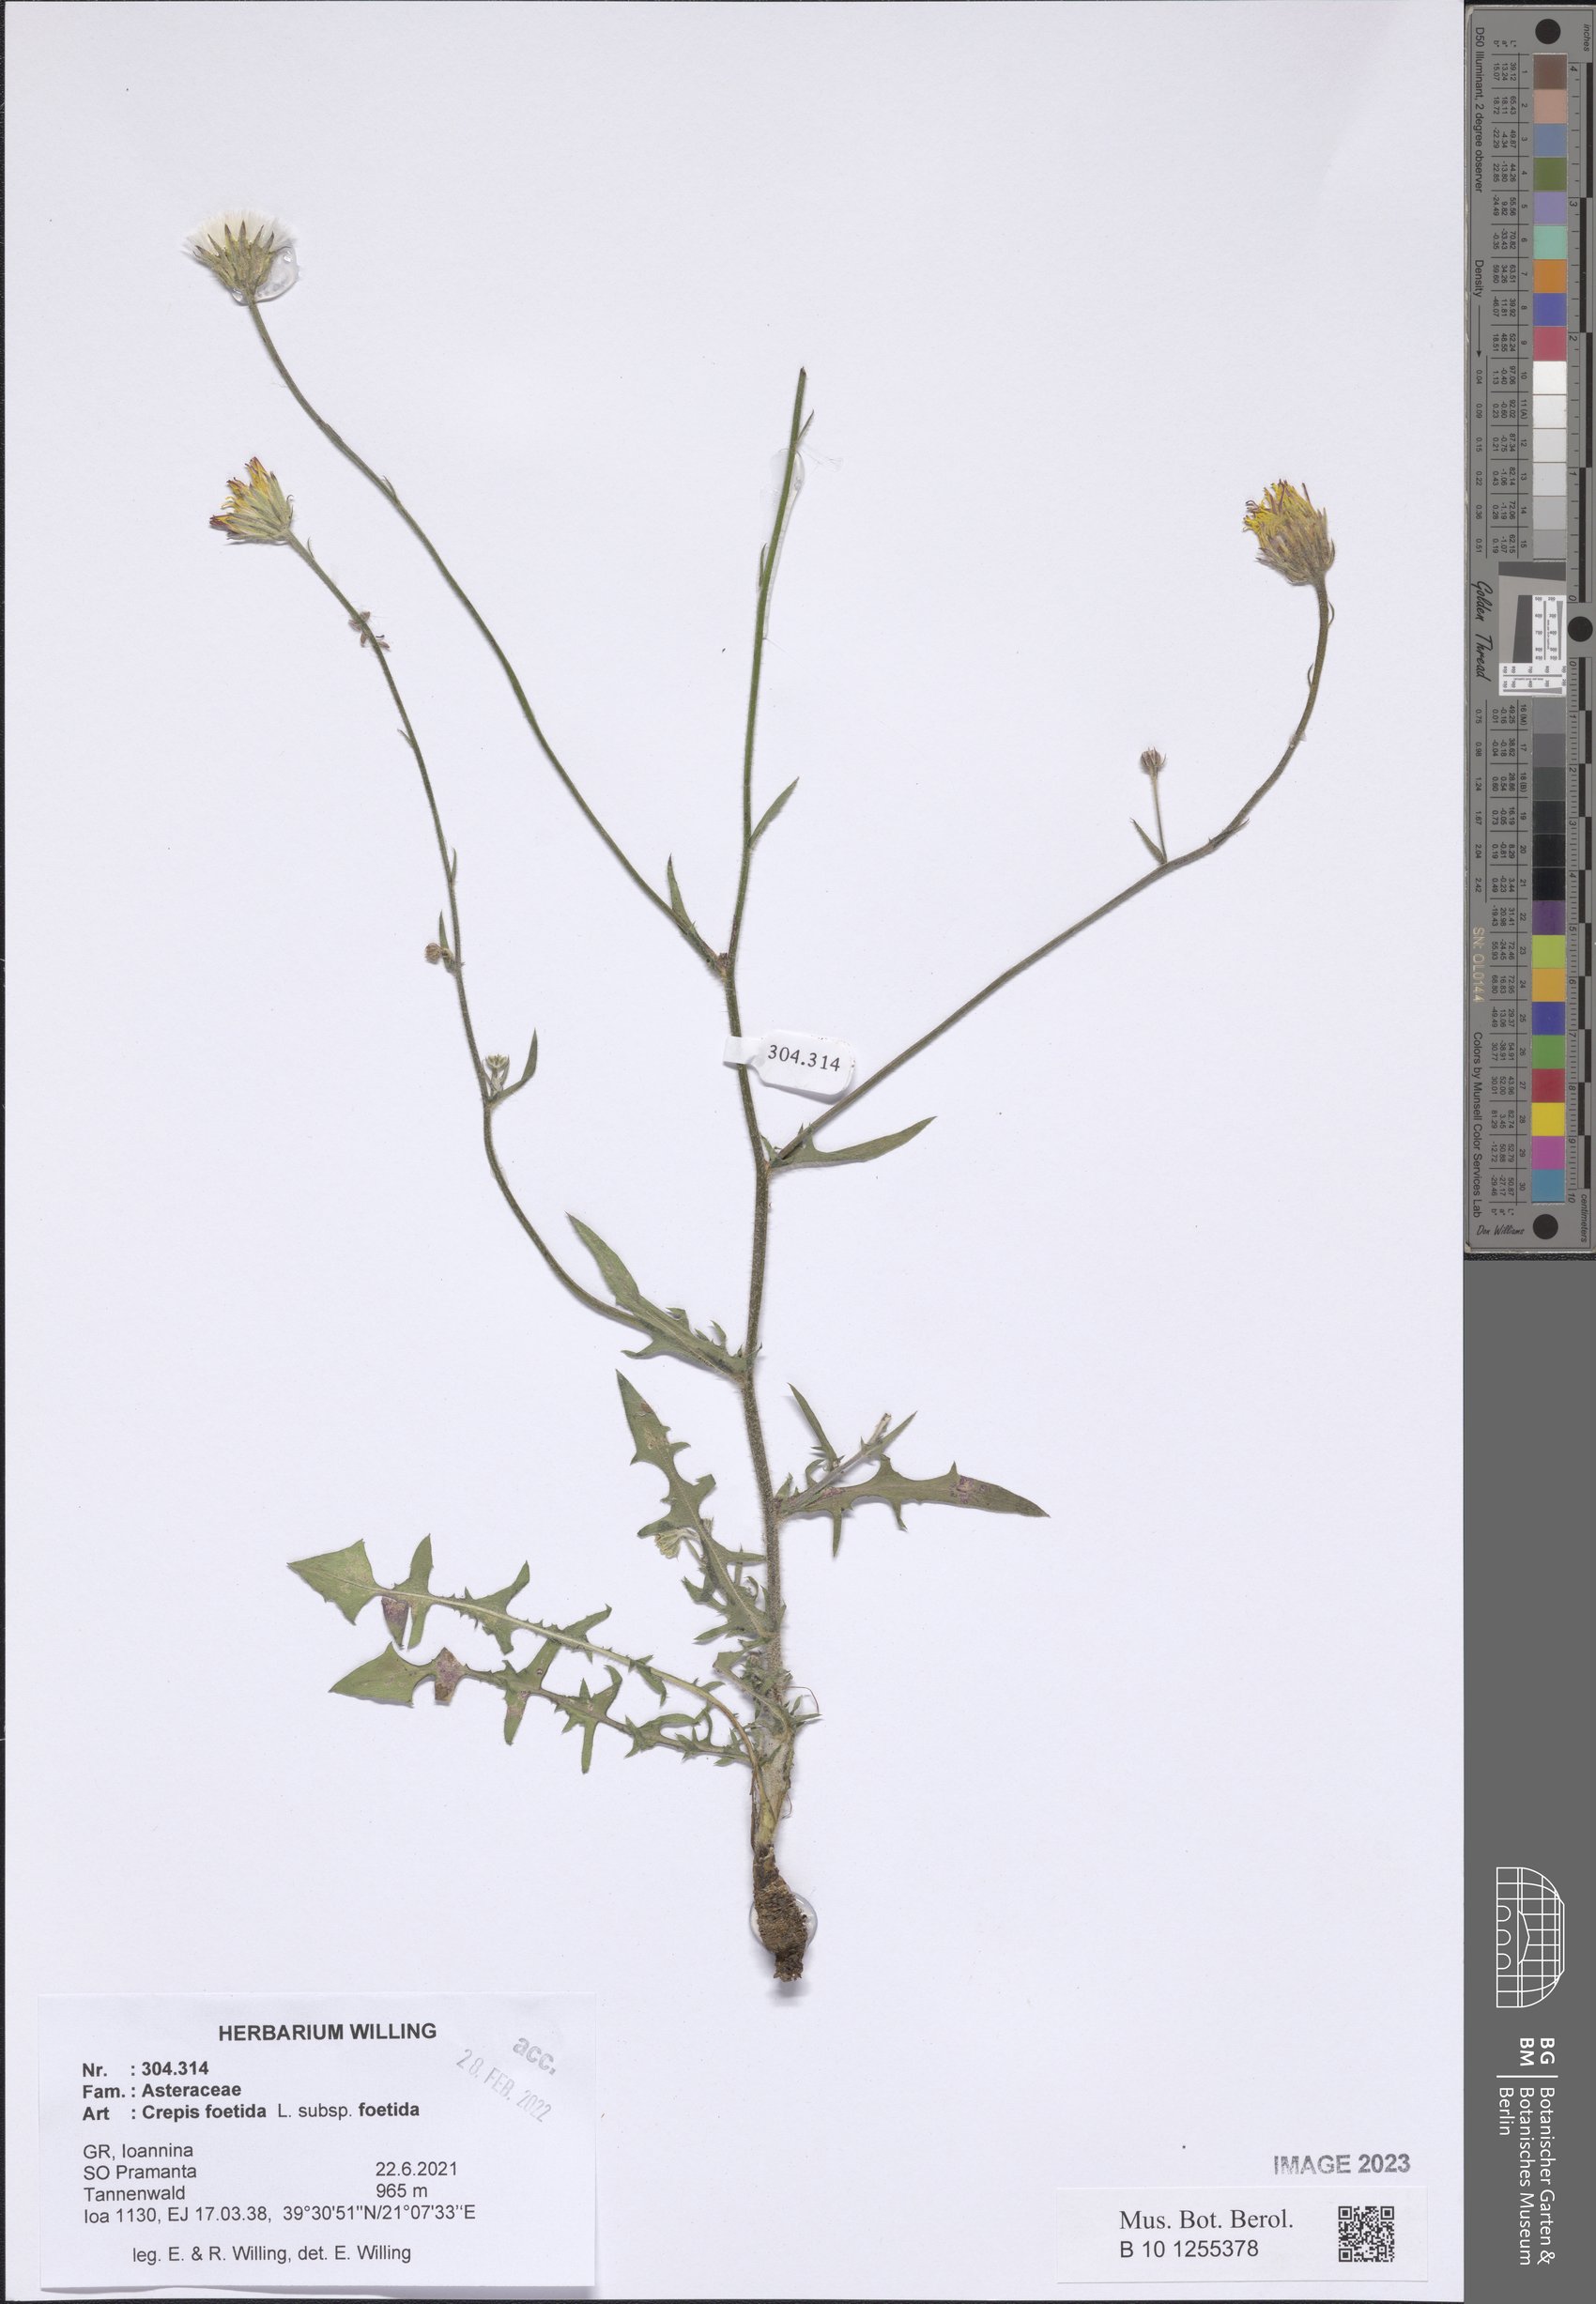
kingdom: Plantae
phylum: Tracheophyta
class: Magnoliopsida
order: Asterales
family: Asteraceae
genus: Crepis
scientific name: Crepis foetida
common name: Stinking hawk's-beard
